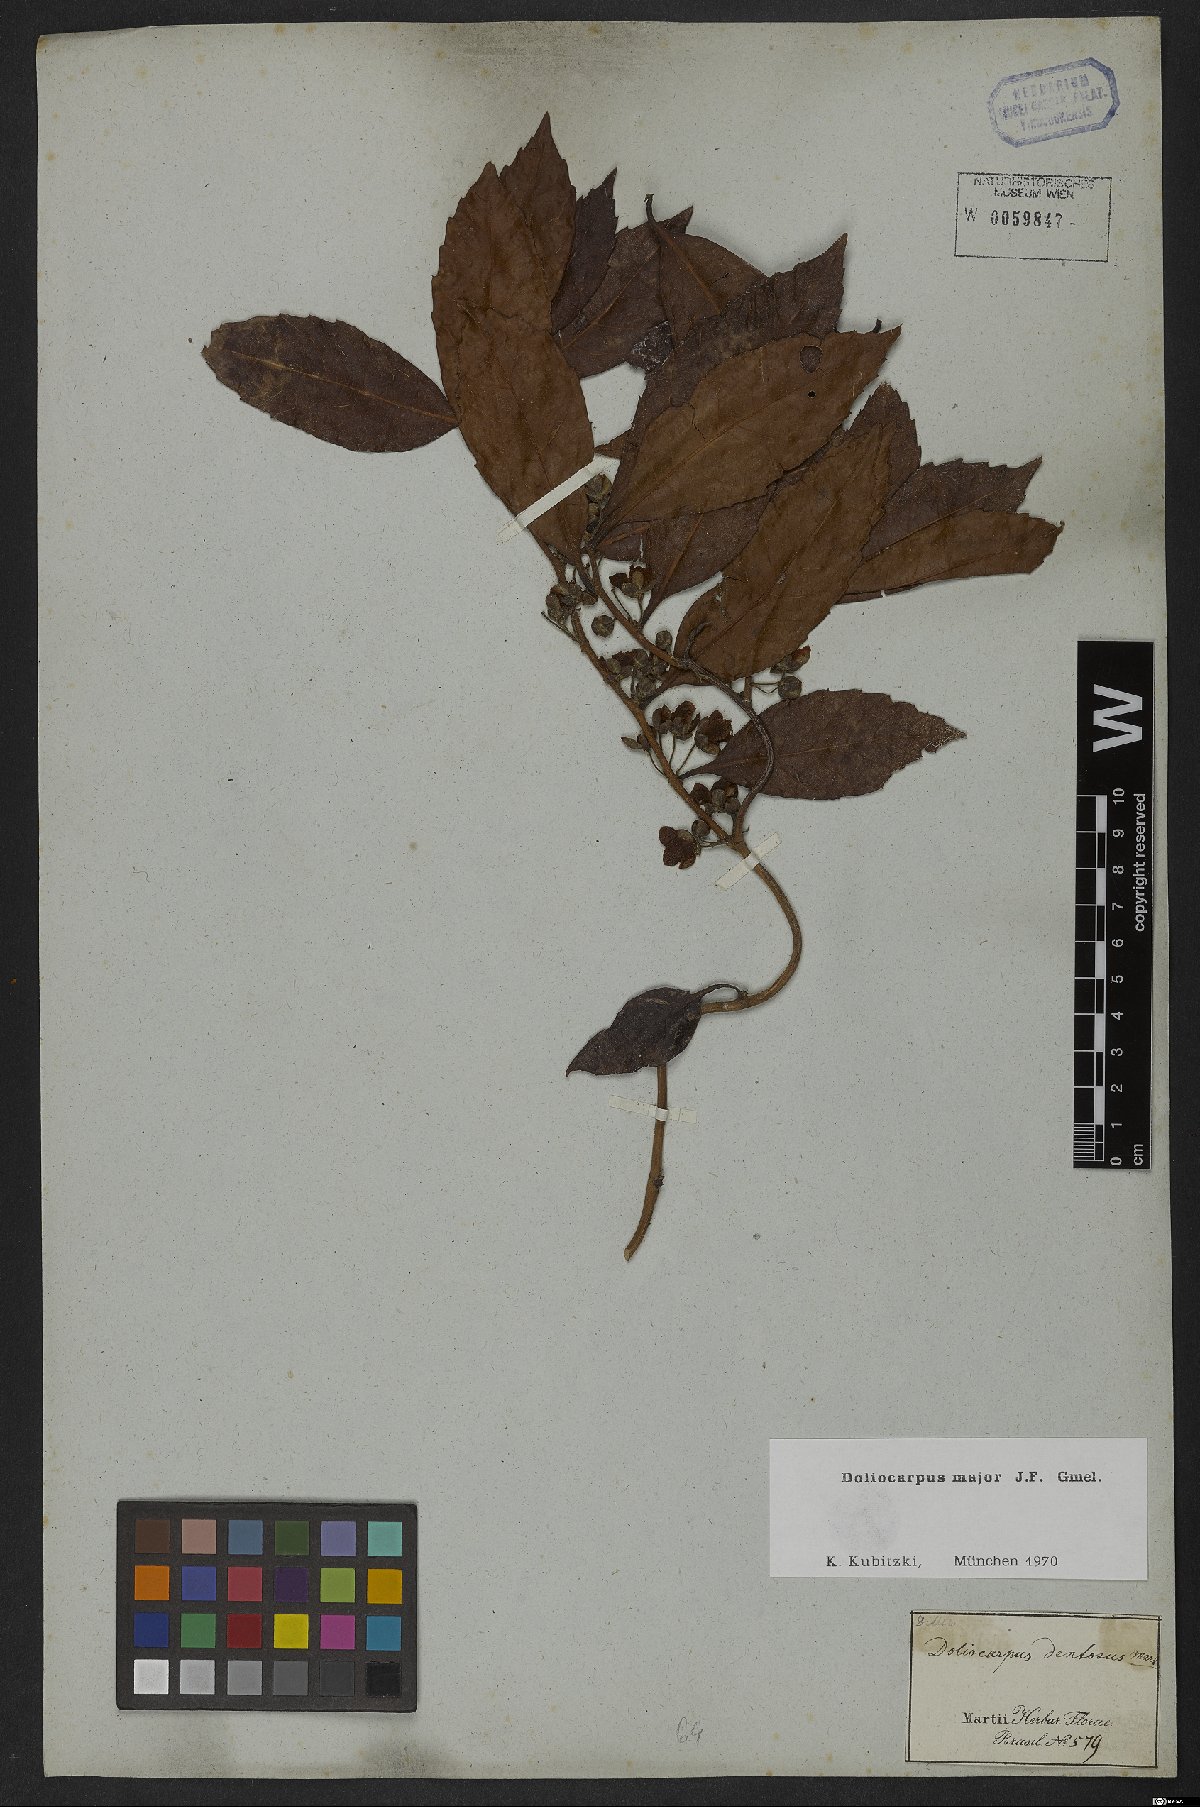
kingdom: Plantae
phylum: Tracheophyta
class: Magnoliopsida
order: Dilleniales
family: Dilleniaceae
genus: Doliocarpus
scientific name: Doliocarpus major
